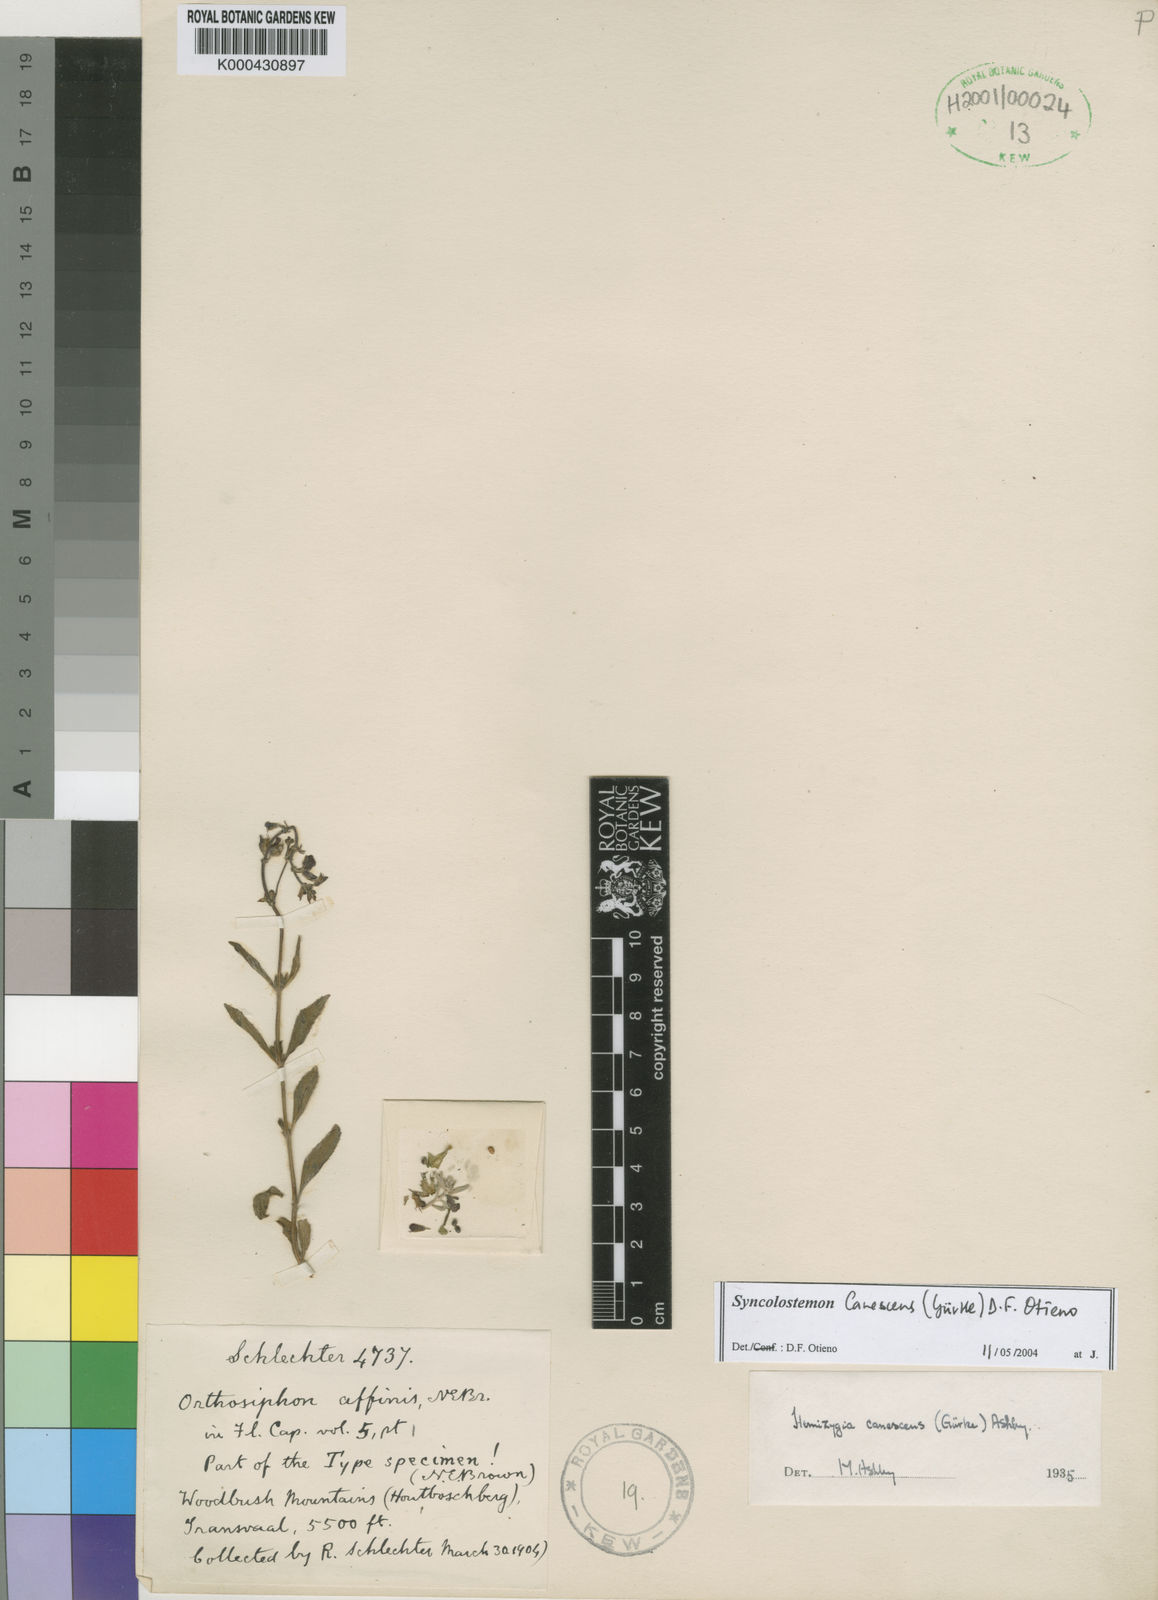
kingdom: Plantae
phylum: Tracheophyta
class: Magnoliopsida
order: Lamiales
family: Lamiaceae
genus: Syncolostemon
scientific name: Syncolostemon
